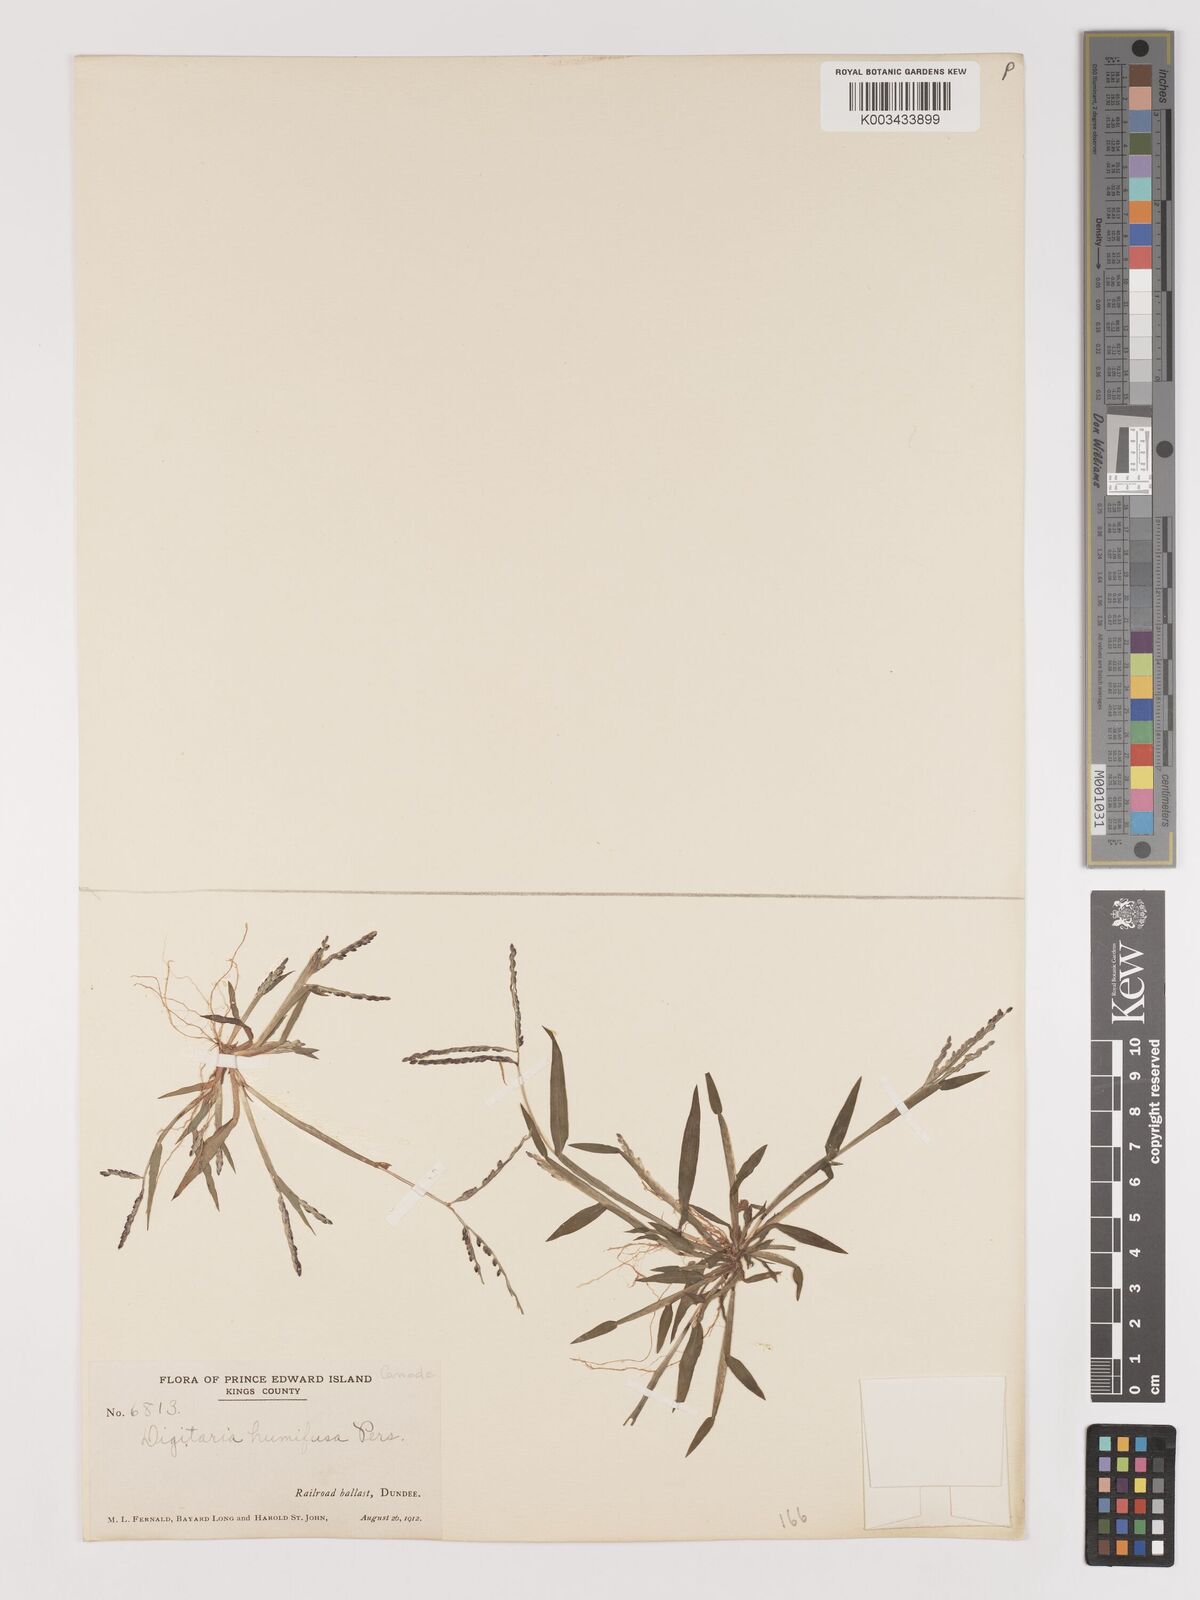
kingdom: Plantae
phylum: Tracheophyta
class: Liliopsida
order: Poales
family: Poaceae
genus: Digitaria
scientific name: Digitaria ischaemum
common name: Smooth crabgrass
